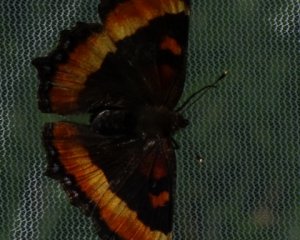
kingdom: Animalia
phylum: Arthropoda
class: Insecta
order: Lepidoptera
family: Nymphalidae
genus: Aglais
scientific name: Aglais milberti
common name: Milbert's Tortoiseshell
